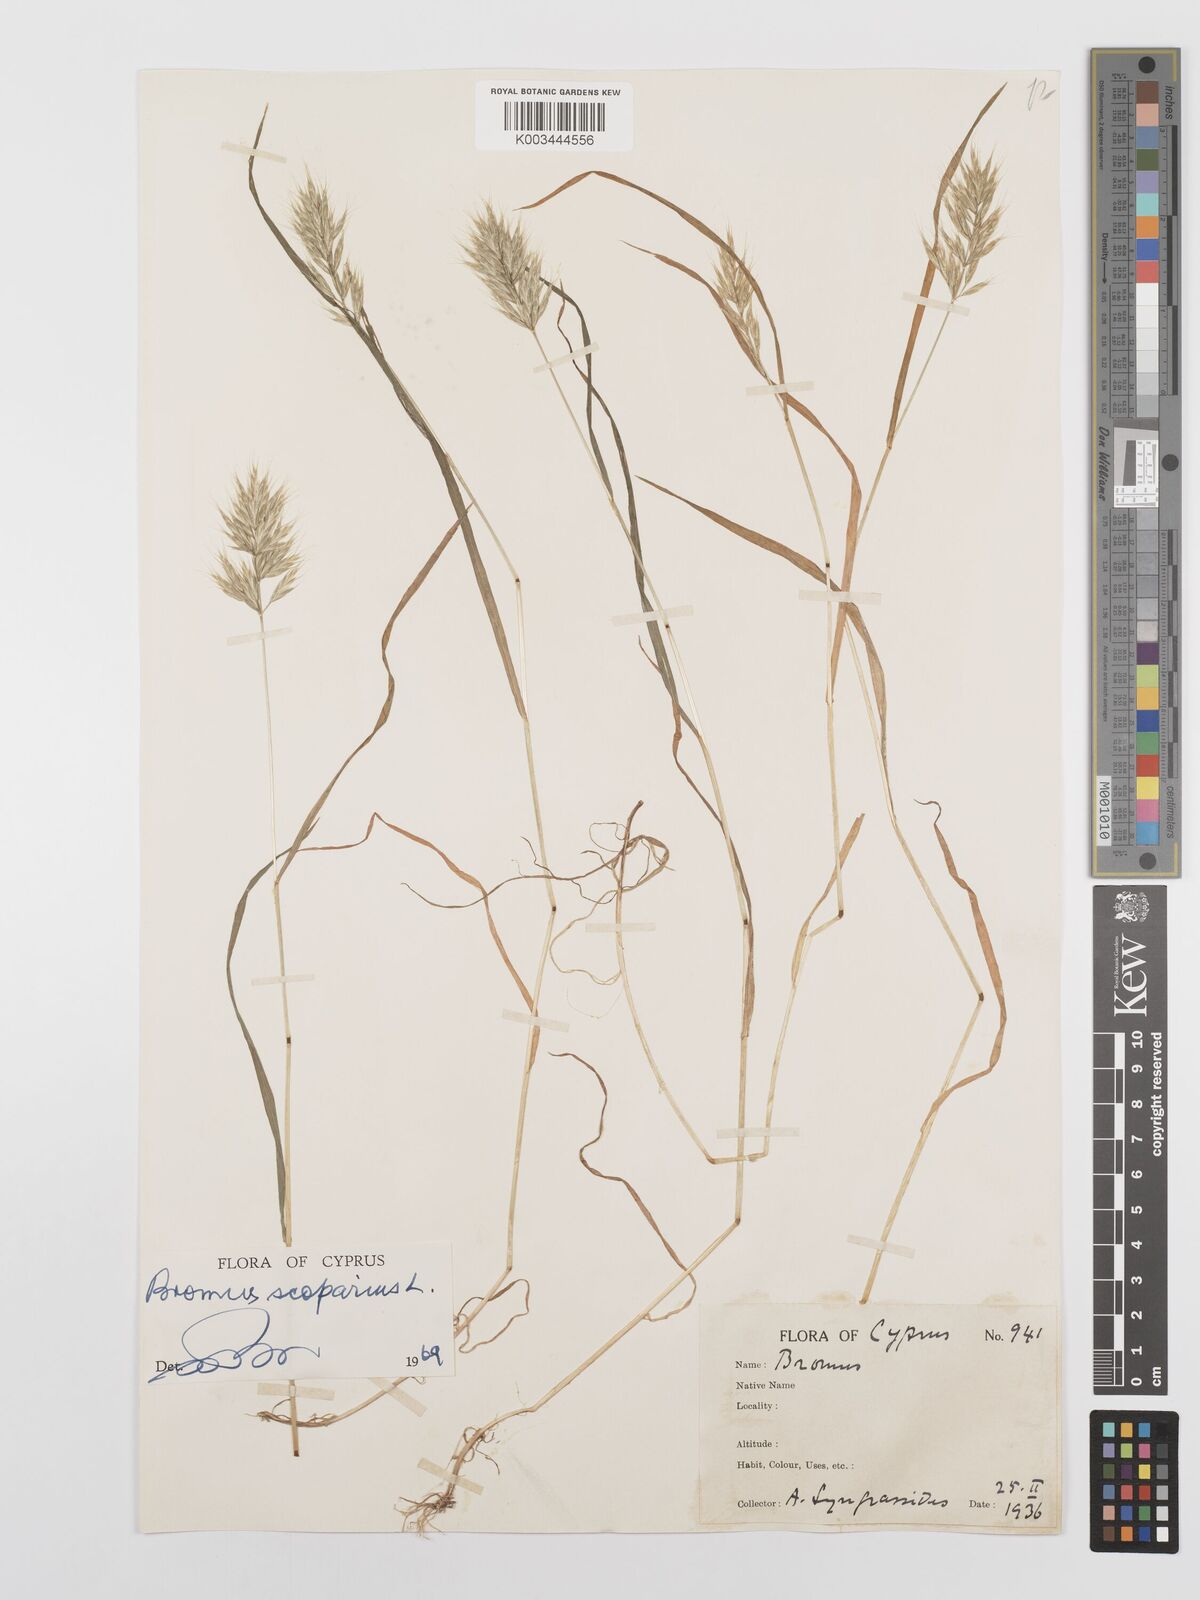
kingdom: Plantae
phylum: Tracheophyta
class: Liliopsida
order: Poales
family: Poaceae
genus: Bromus
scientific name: Bromus scoparius
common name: Broom brome
